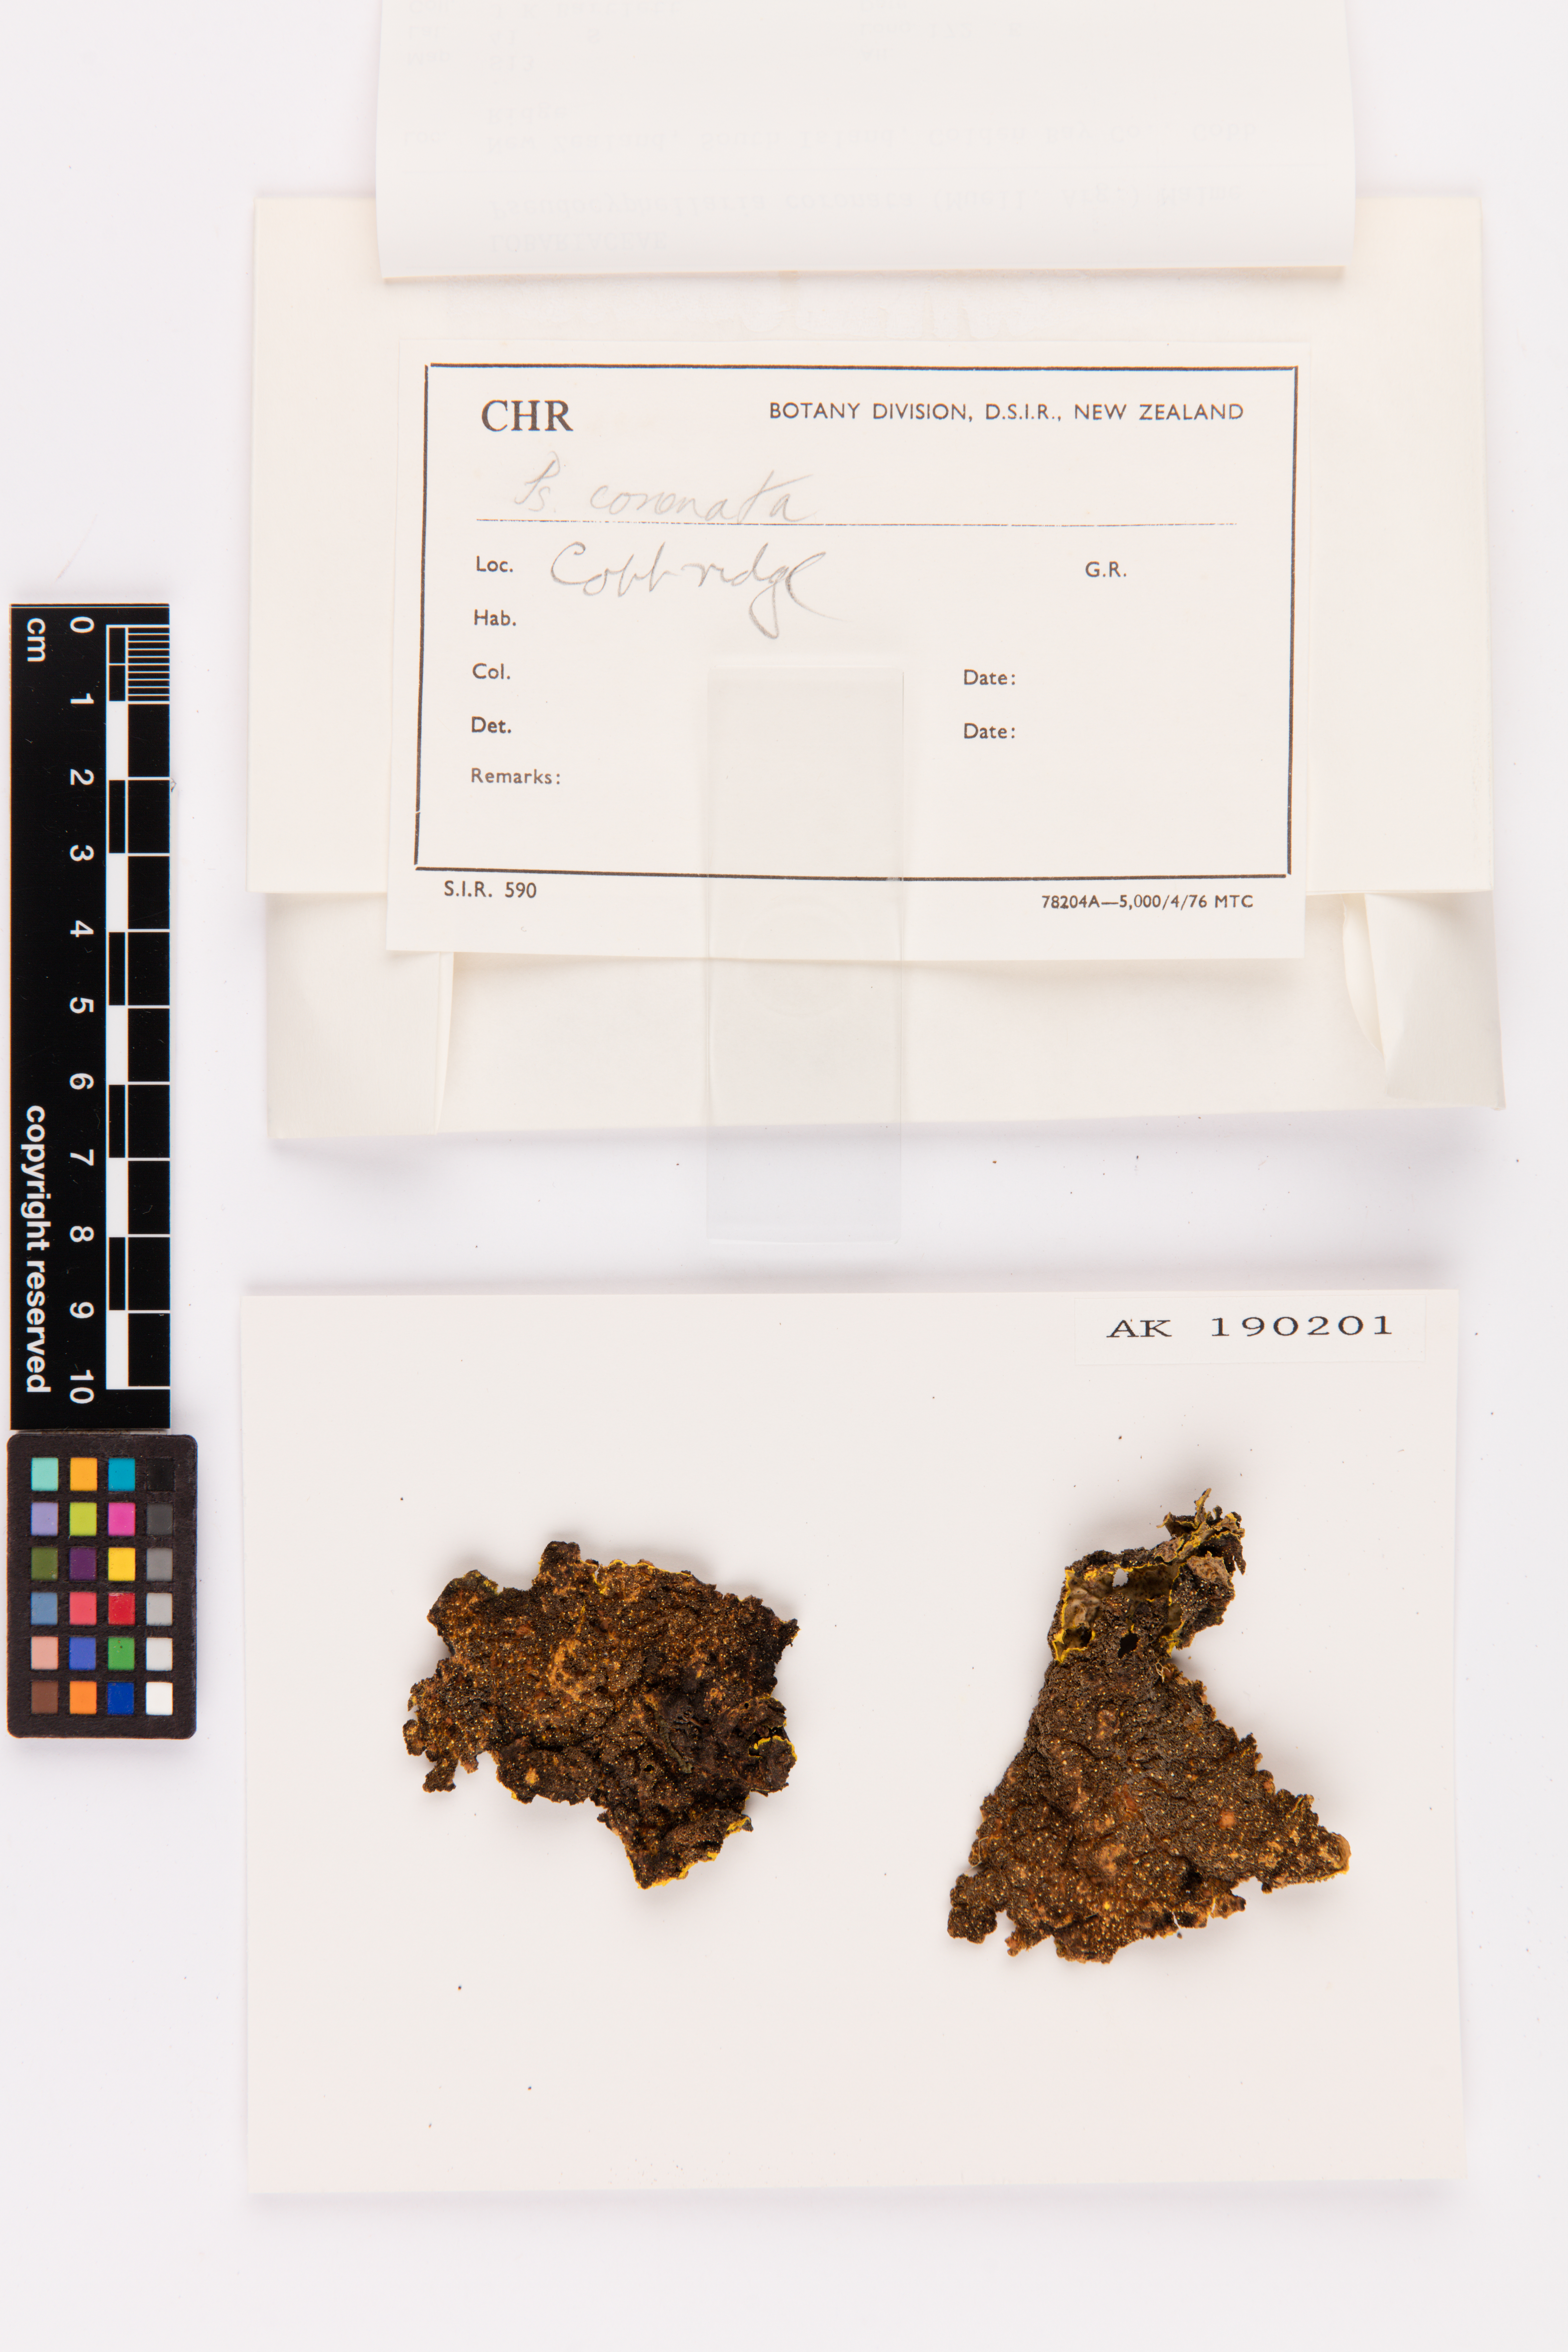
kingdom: Fungi
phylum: Ascomycota
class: Lecanoromycetes
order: Peltigerales
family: Lobariaceae
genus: Yarrumia
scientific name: Yarrumia coronata
